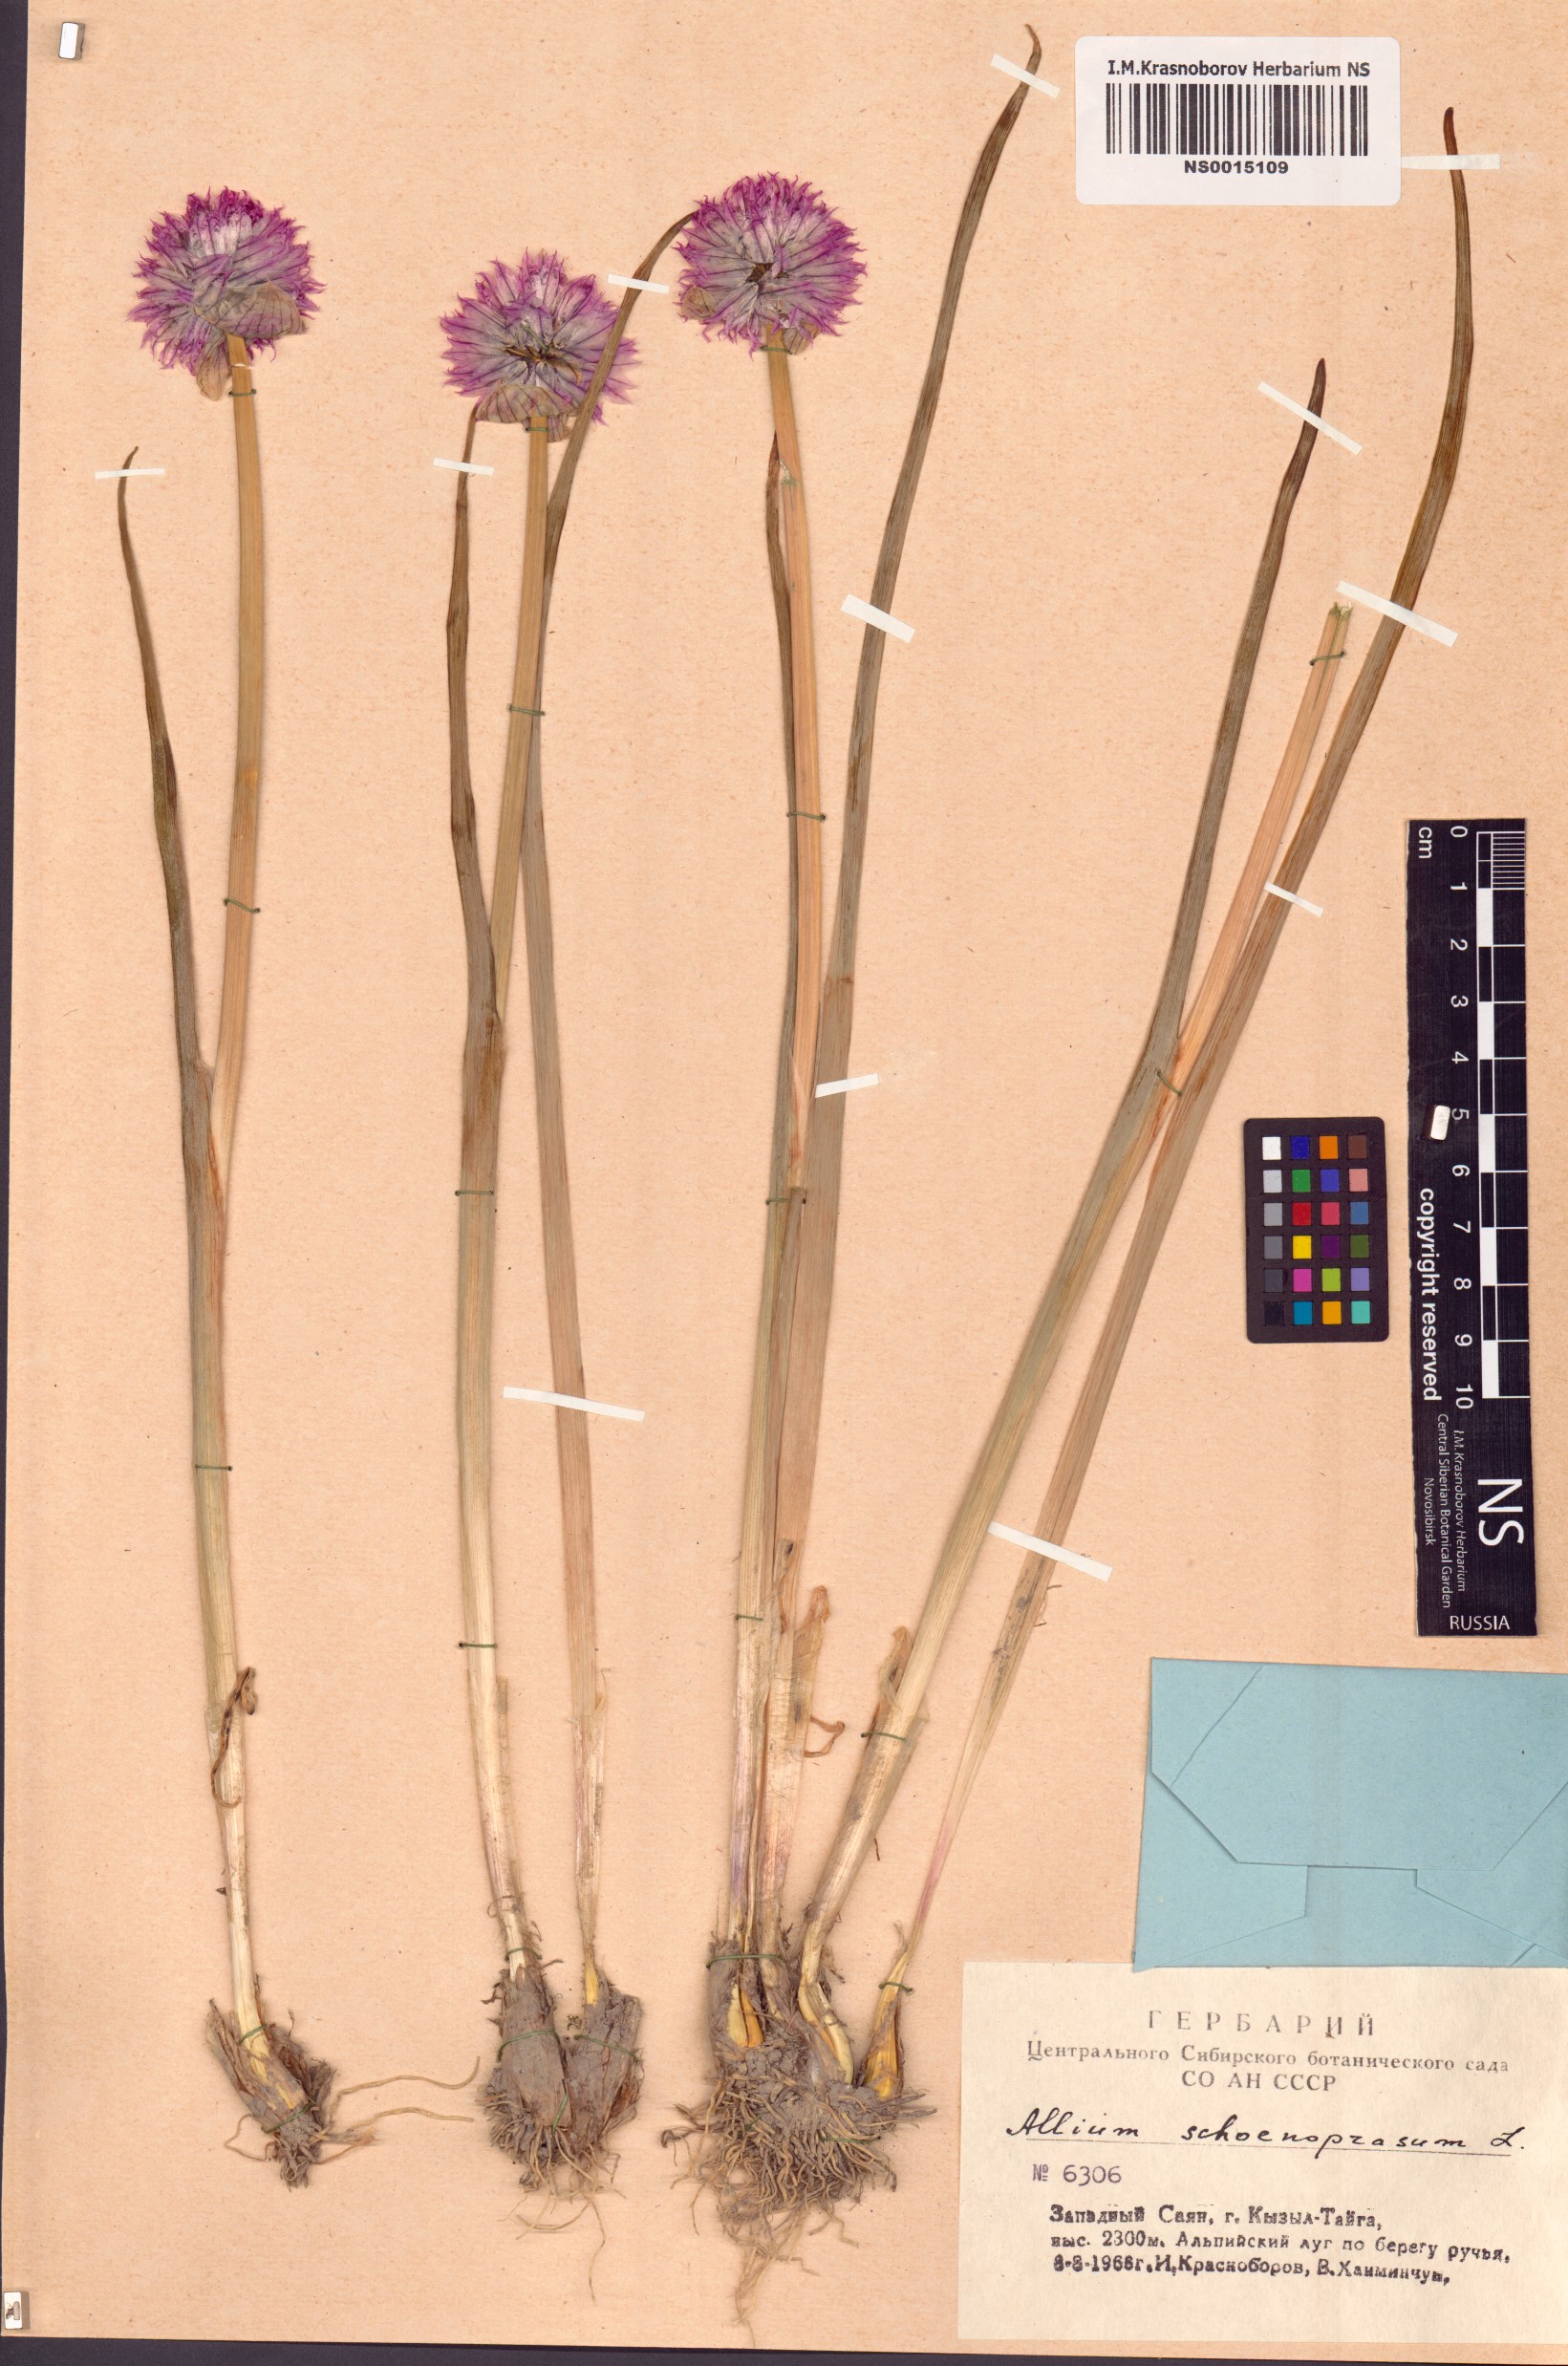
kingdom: Plantae
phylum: Tracheophyta
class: Liliopsida
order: Asparagales
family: Amaryllidaceae
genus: Allium
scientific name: Allium schoenoprasum
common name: Chives
